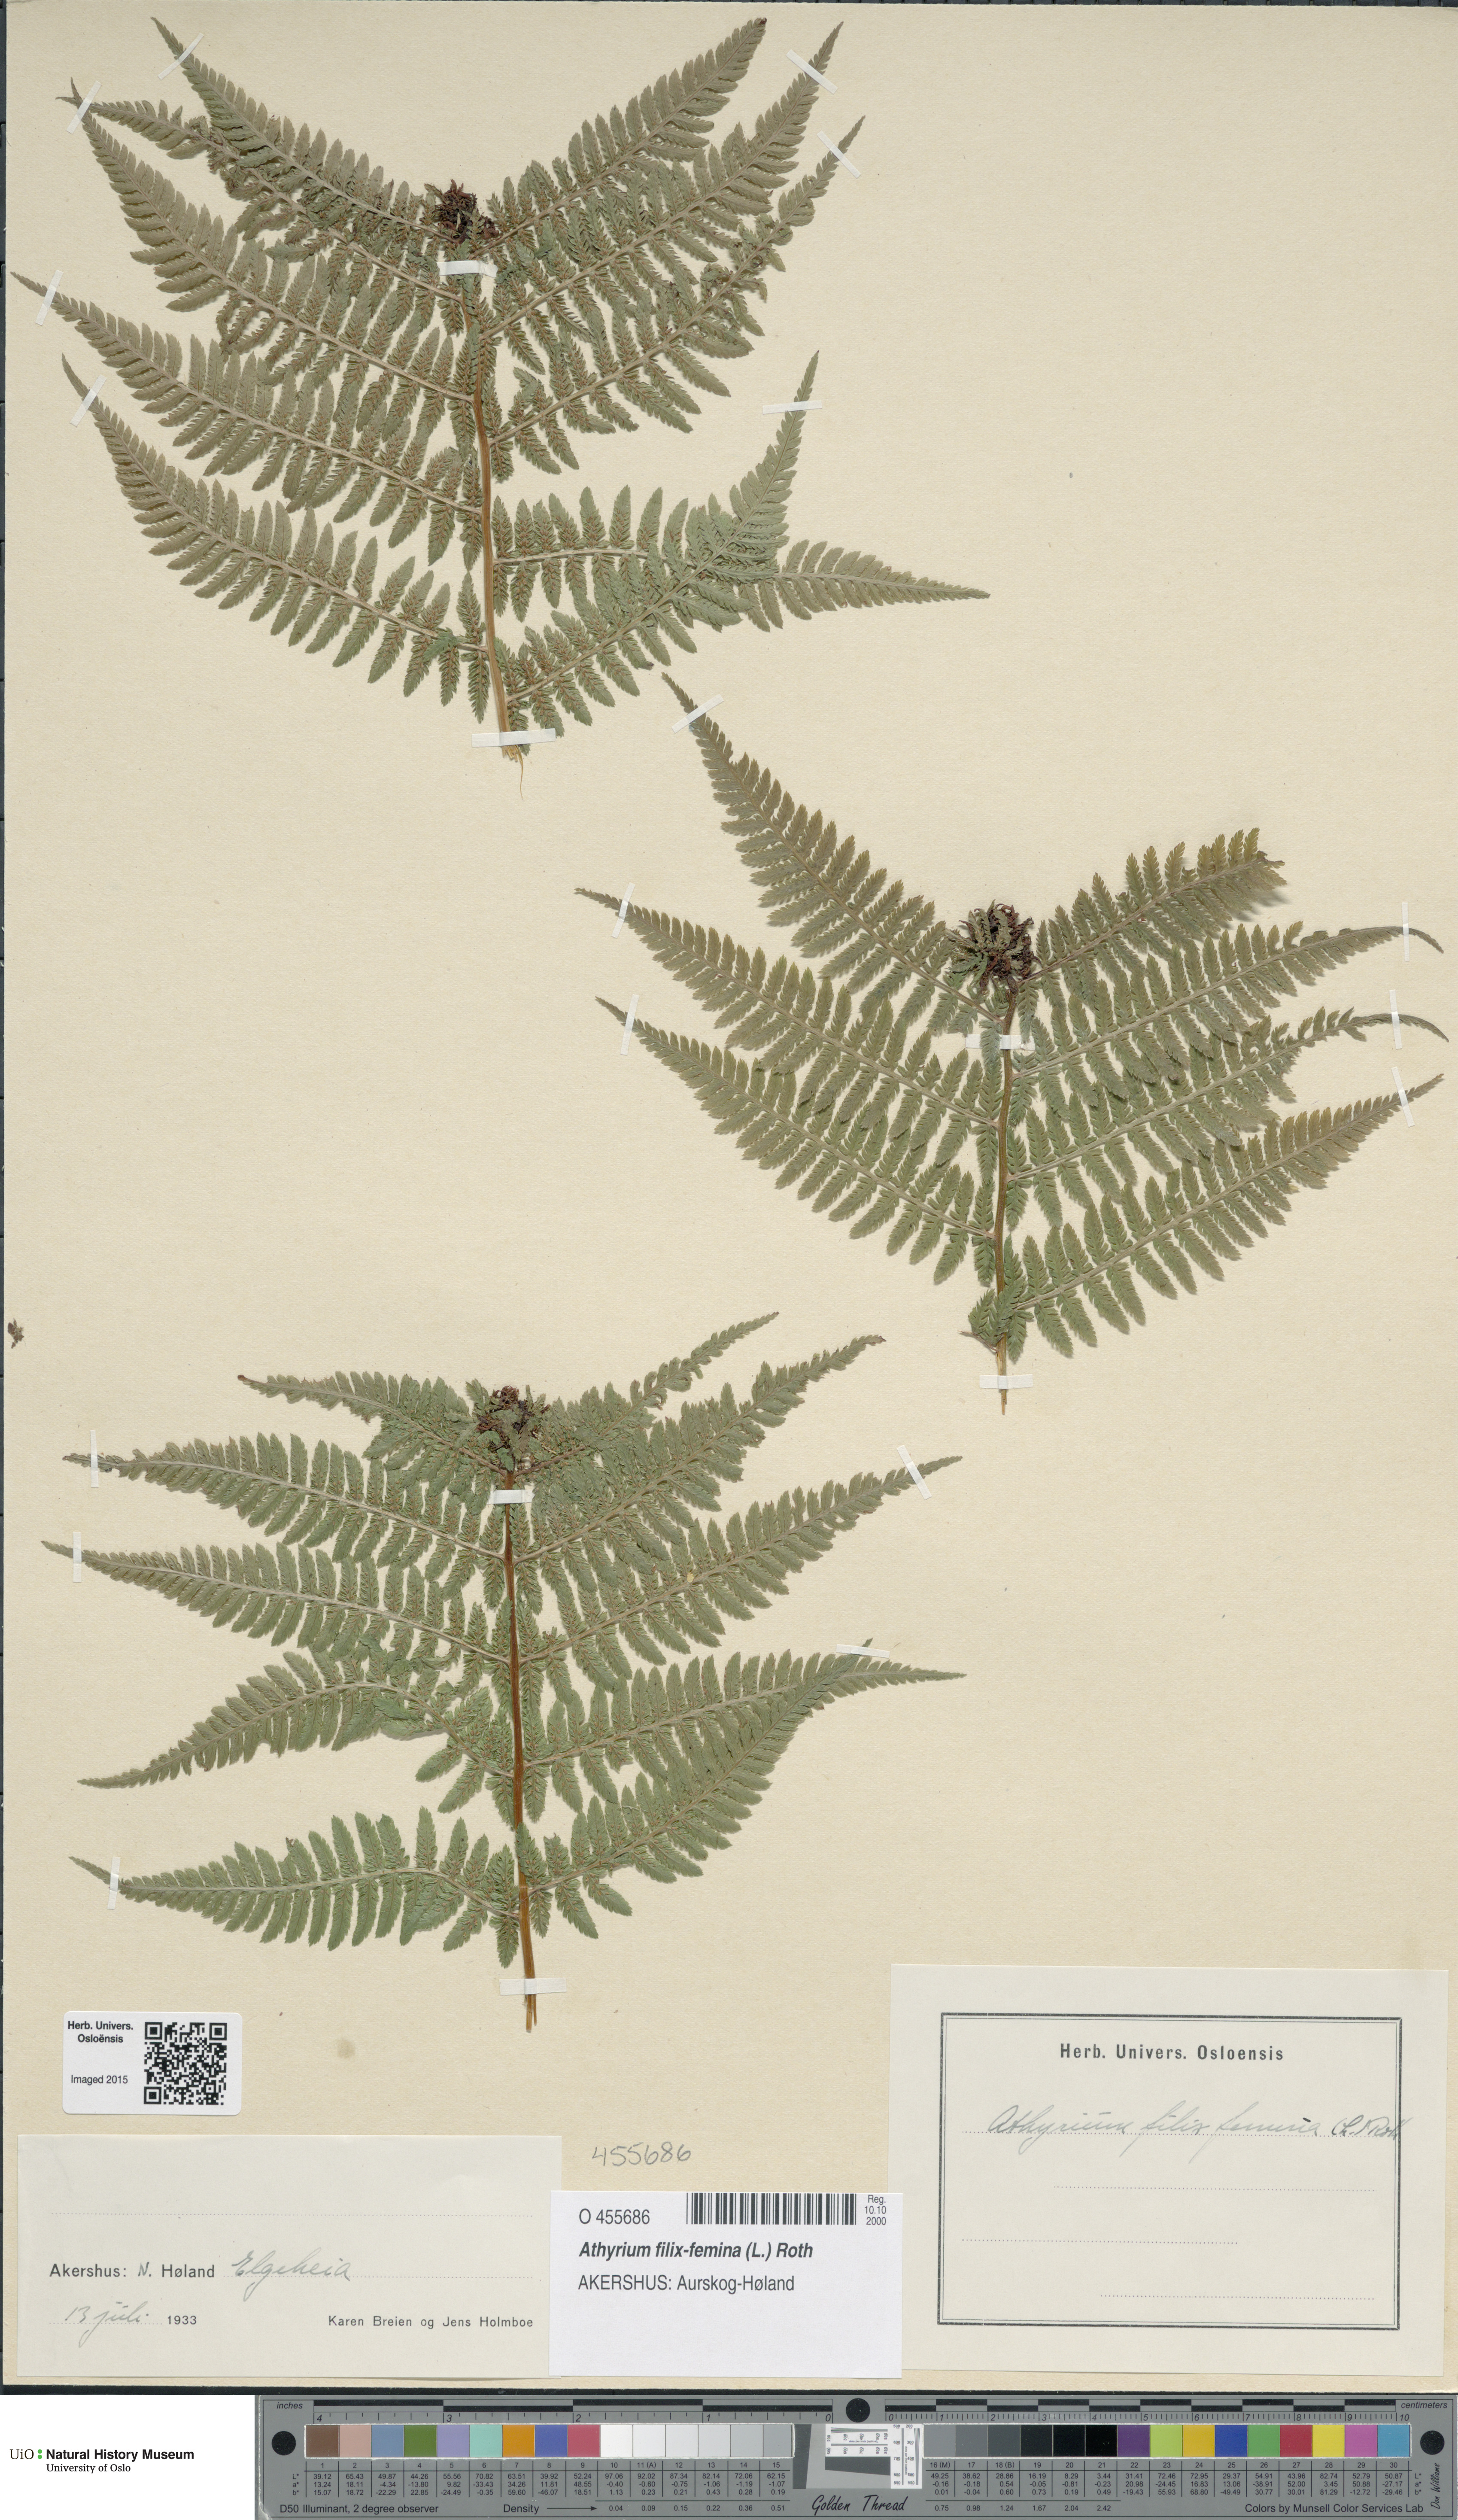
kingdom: Plantae
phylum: Tracheophyta
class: Polypodiopsida
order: Polypodiales
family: Athyriaceae
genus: Athyrium
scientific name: Athyrium filix-femina
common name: Lady fern
